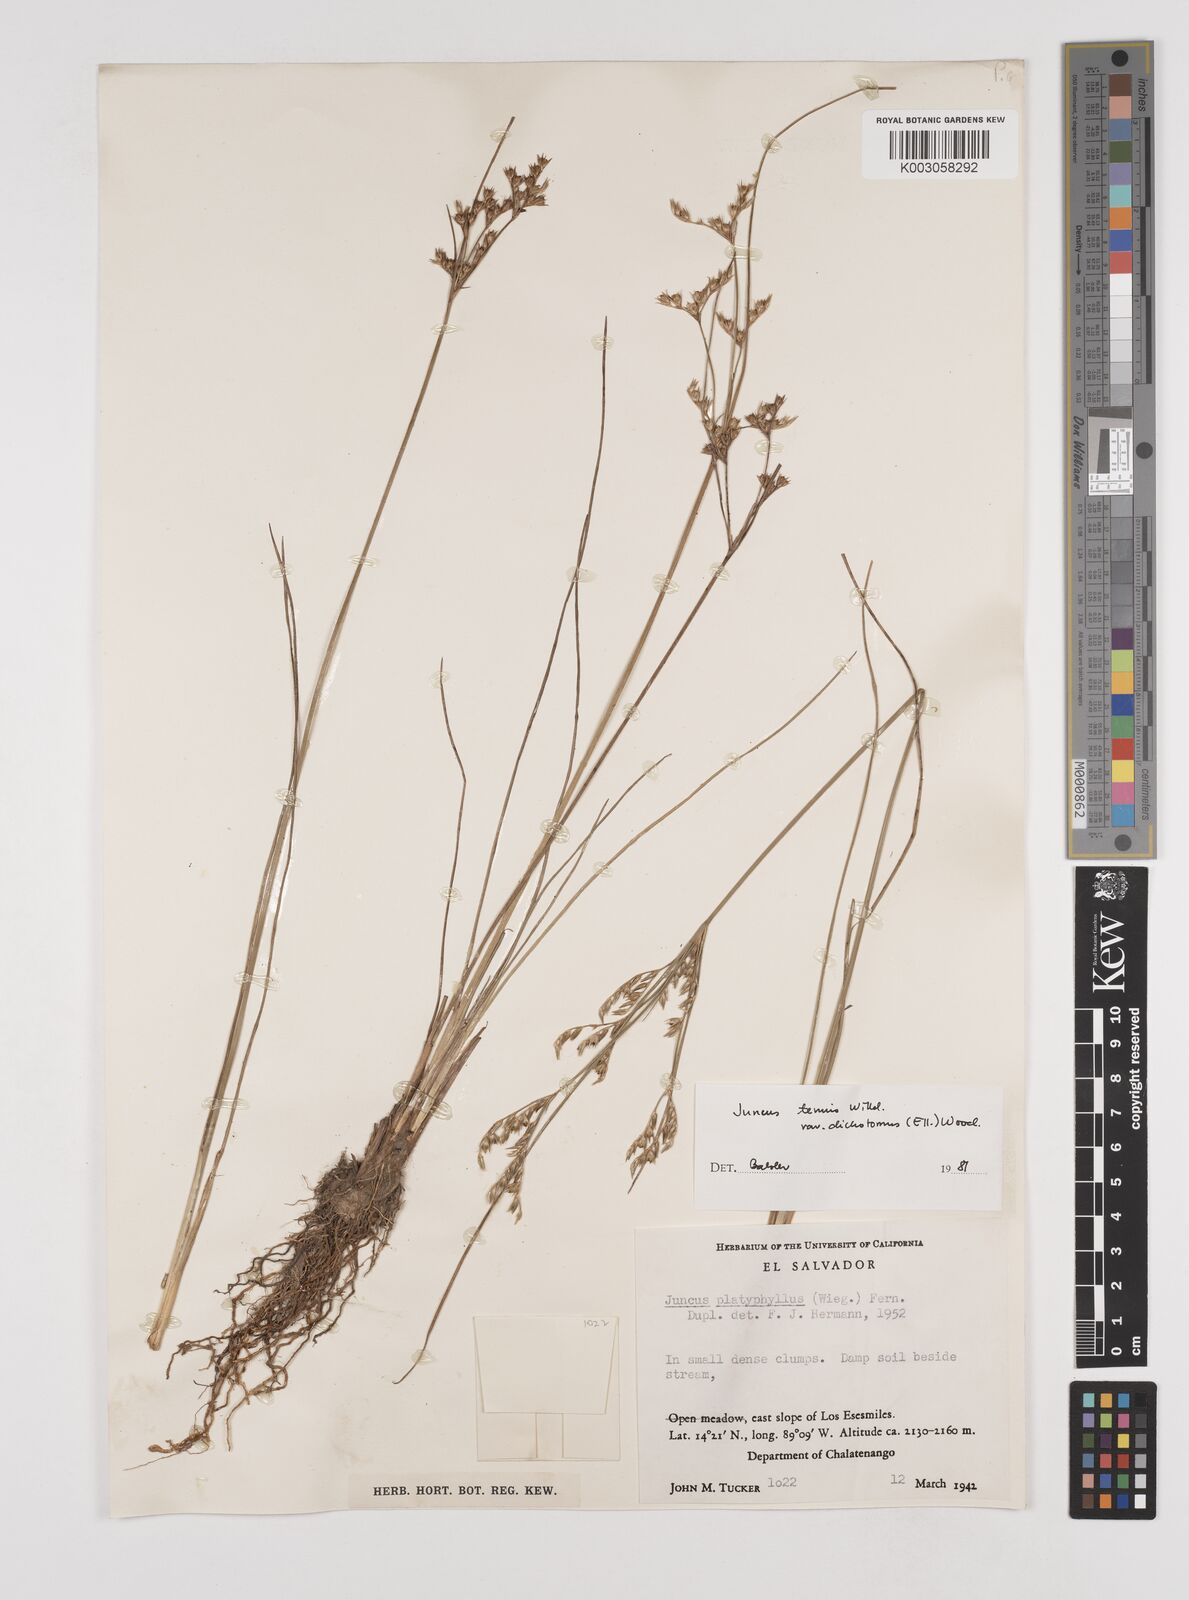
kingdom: Plantae
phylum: Tracheophyta
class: Liliopsida
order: Poales
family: Juncaceae
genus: Juncus
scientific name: Juncus dichotomus
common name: Forked rush
